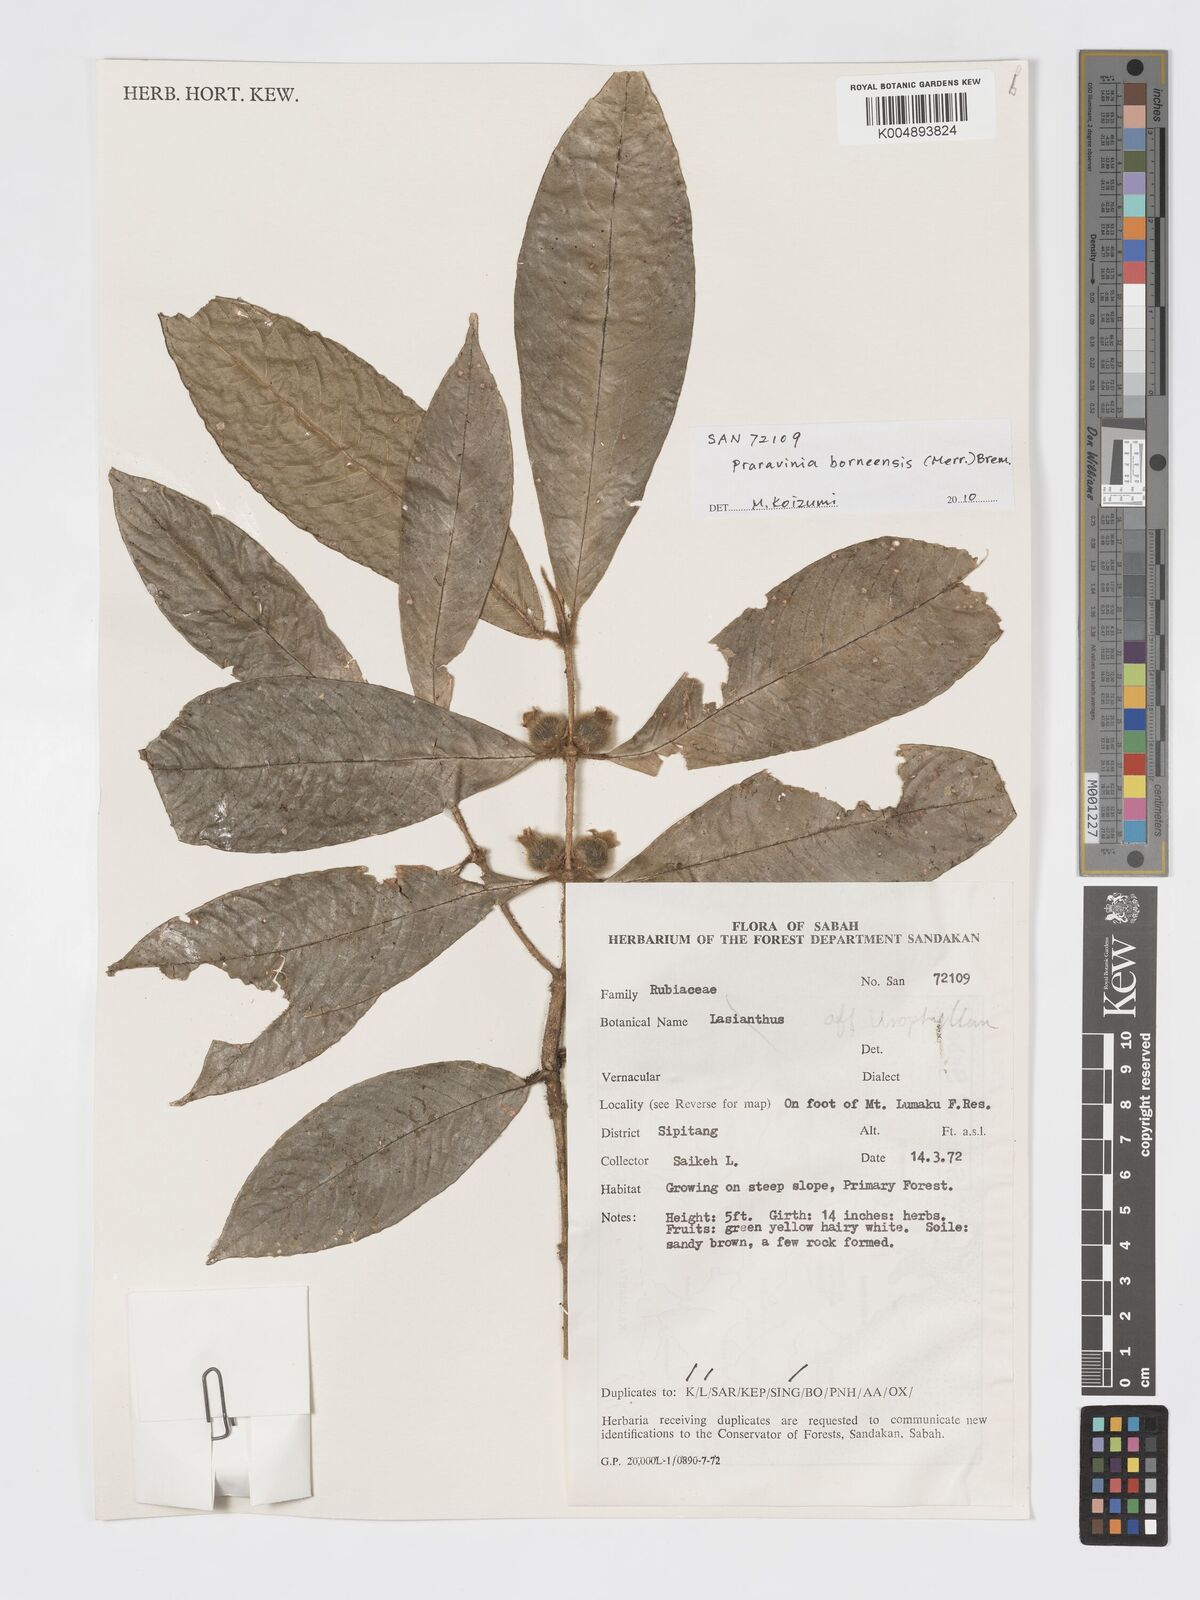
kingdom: Plantae
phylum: Tracheophyta
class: Magnoliopsida
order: Gentianales
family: Rubiaceae
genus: Praravinia
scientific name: Praravinia borneensis
